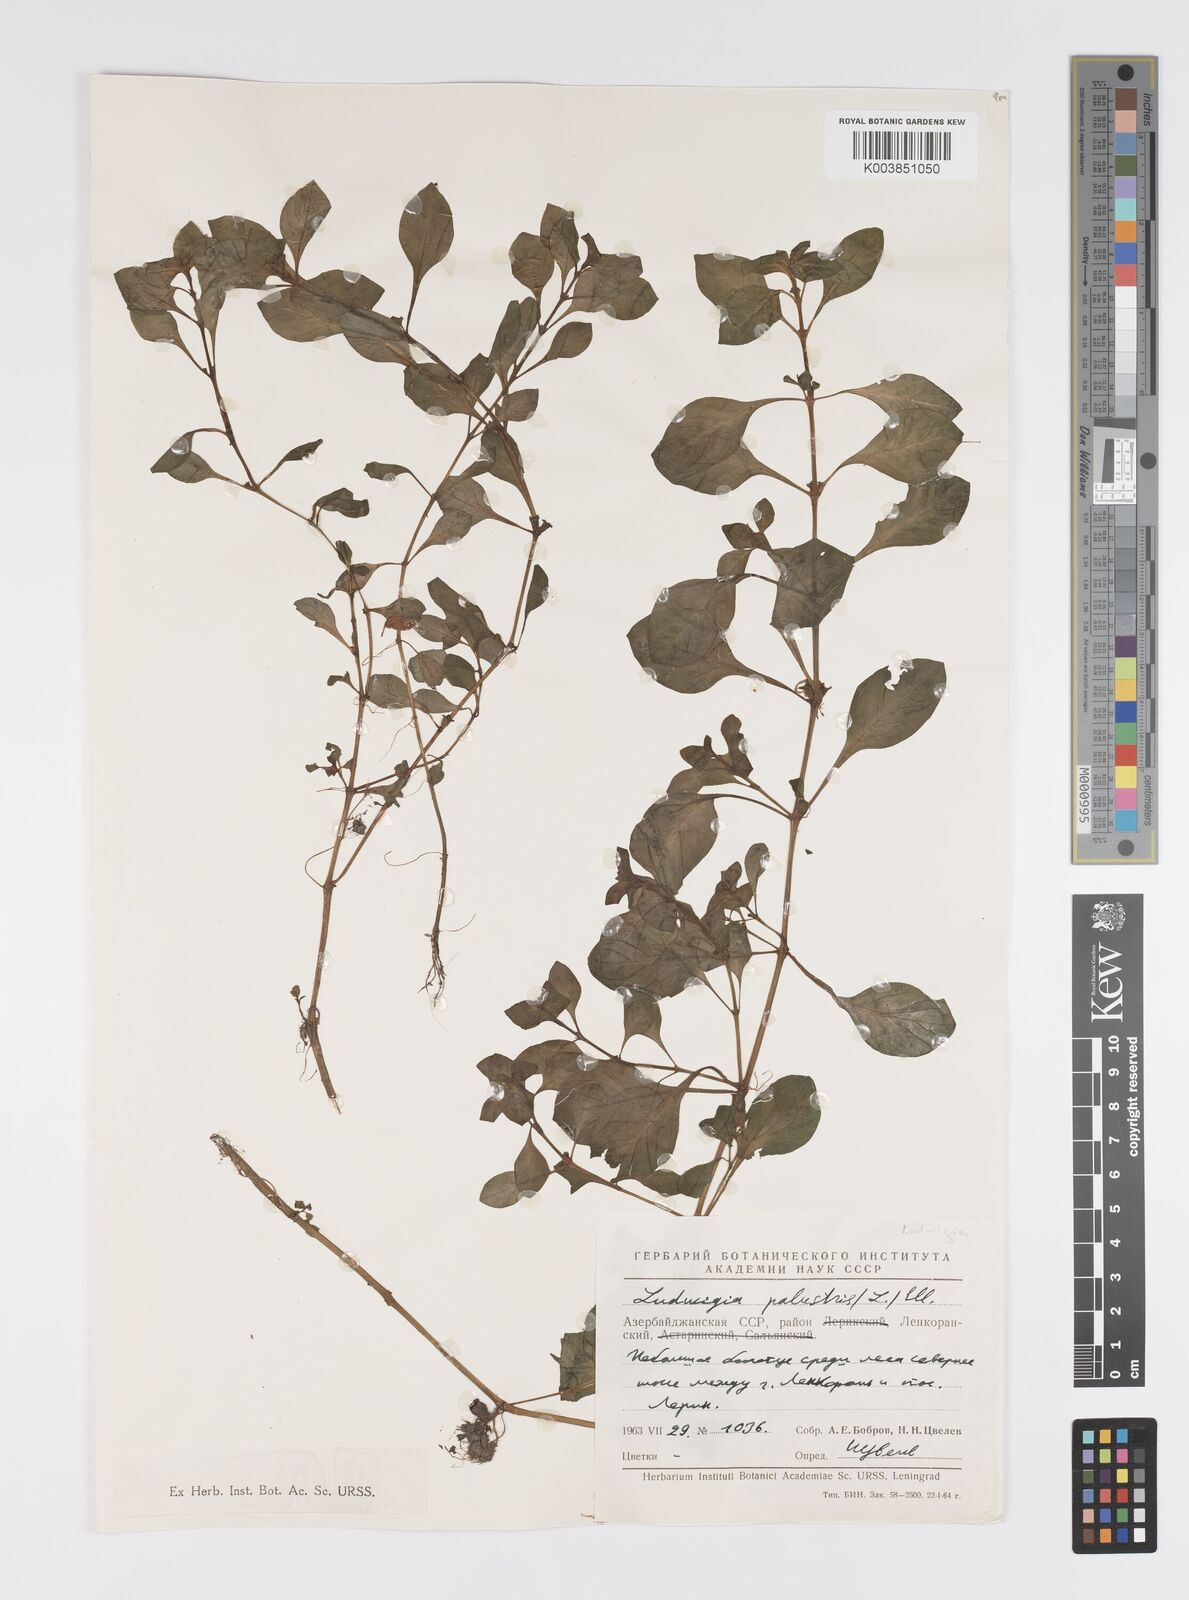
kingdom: Plantae
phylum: Tracheophyta
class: Magnoliopsida
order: Myrtales
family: Onagraceae
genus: Ludwigia
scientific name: Ludwigia palustris
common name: Hampshire-purslane
